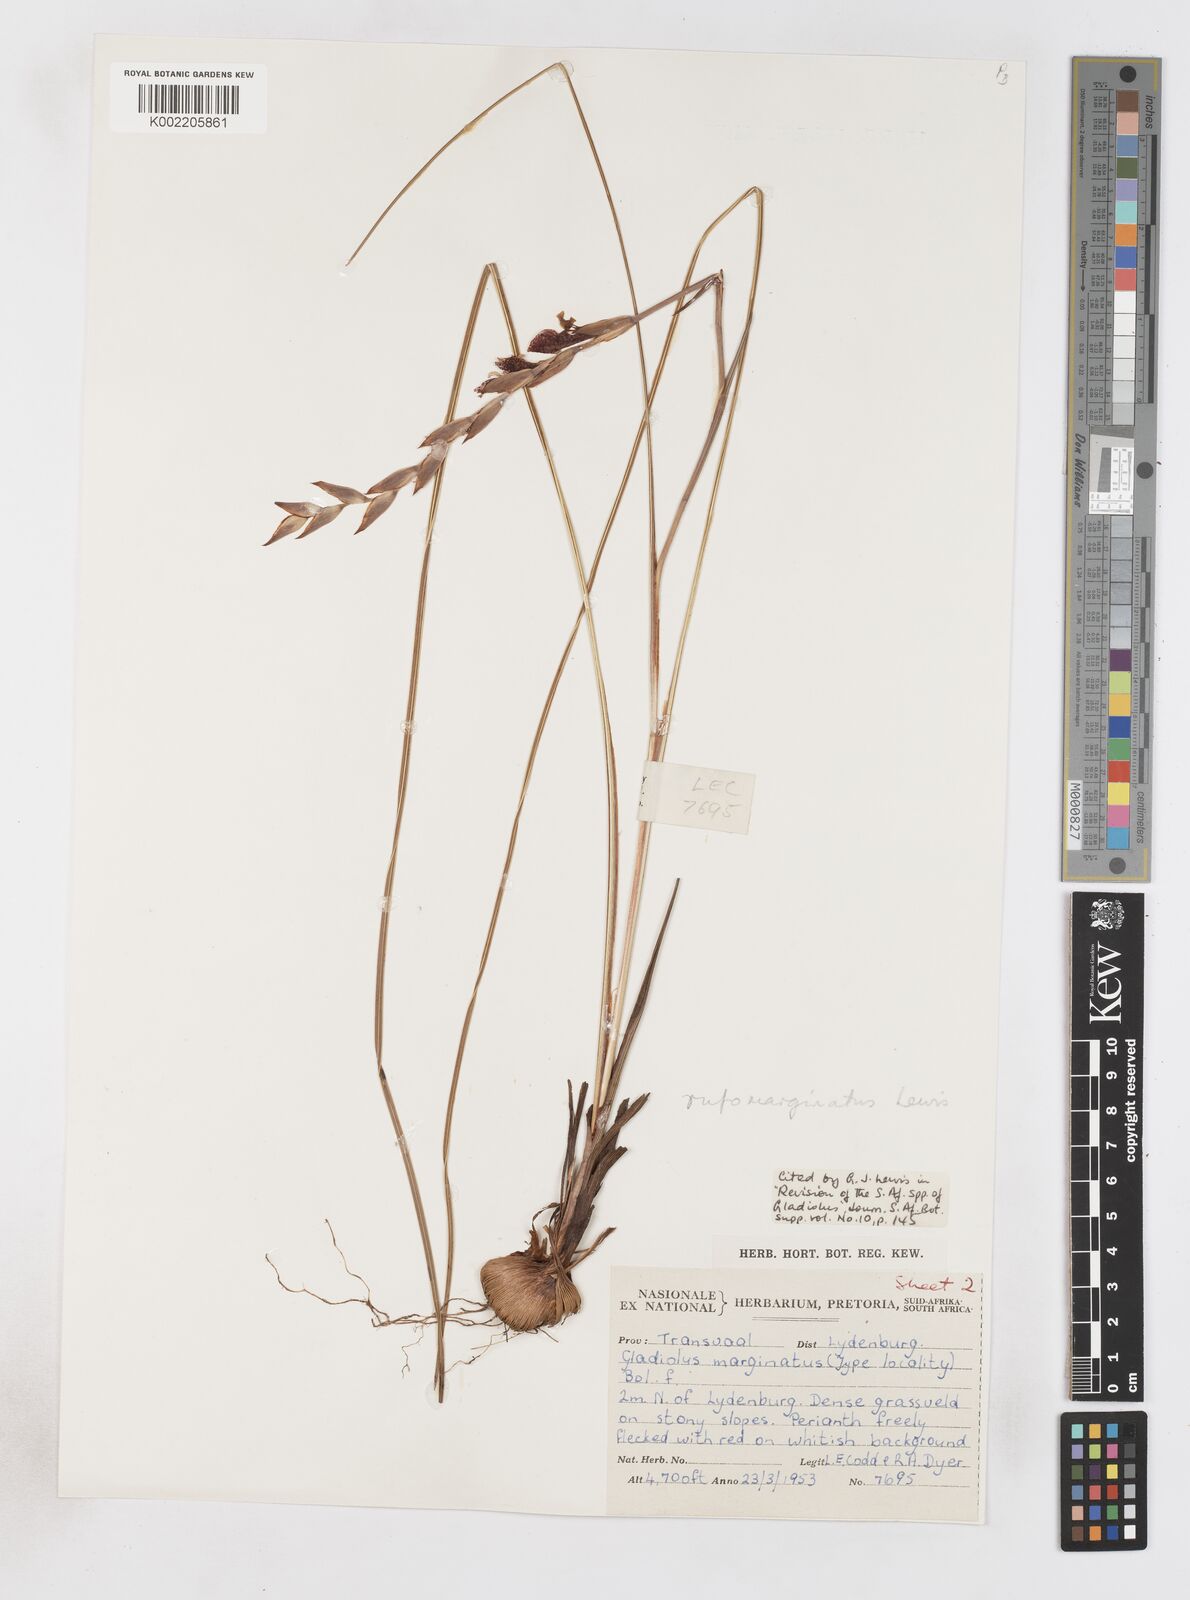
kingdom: Plantae
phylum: Tracheophyta
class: Liliopsida
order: Asparagales
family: Iridaceae
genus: Gladiolus
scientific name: Gladiolus rufomarginatus
